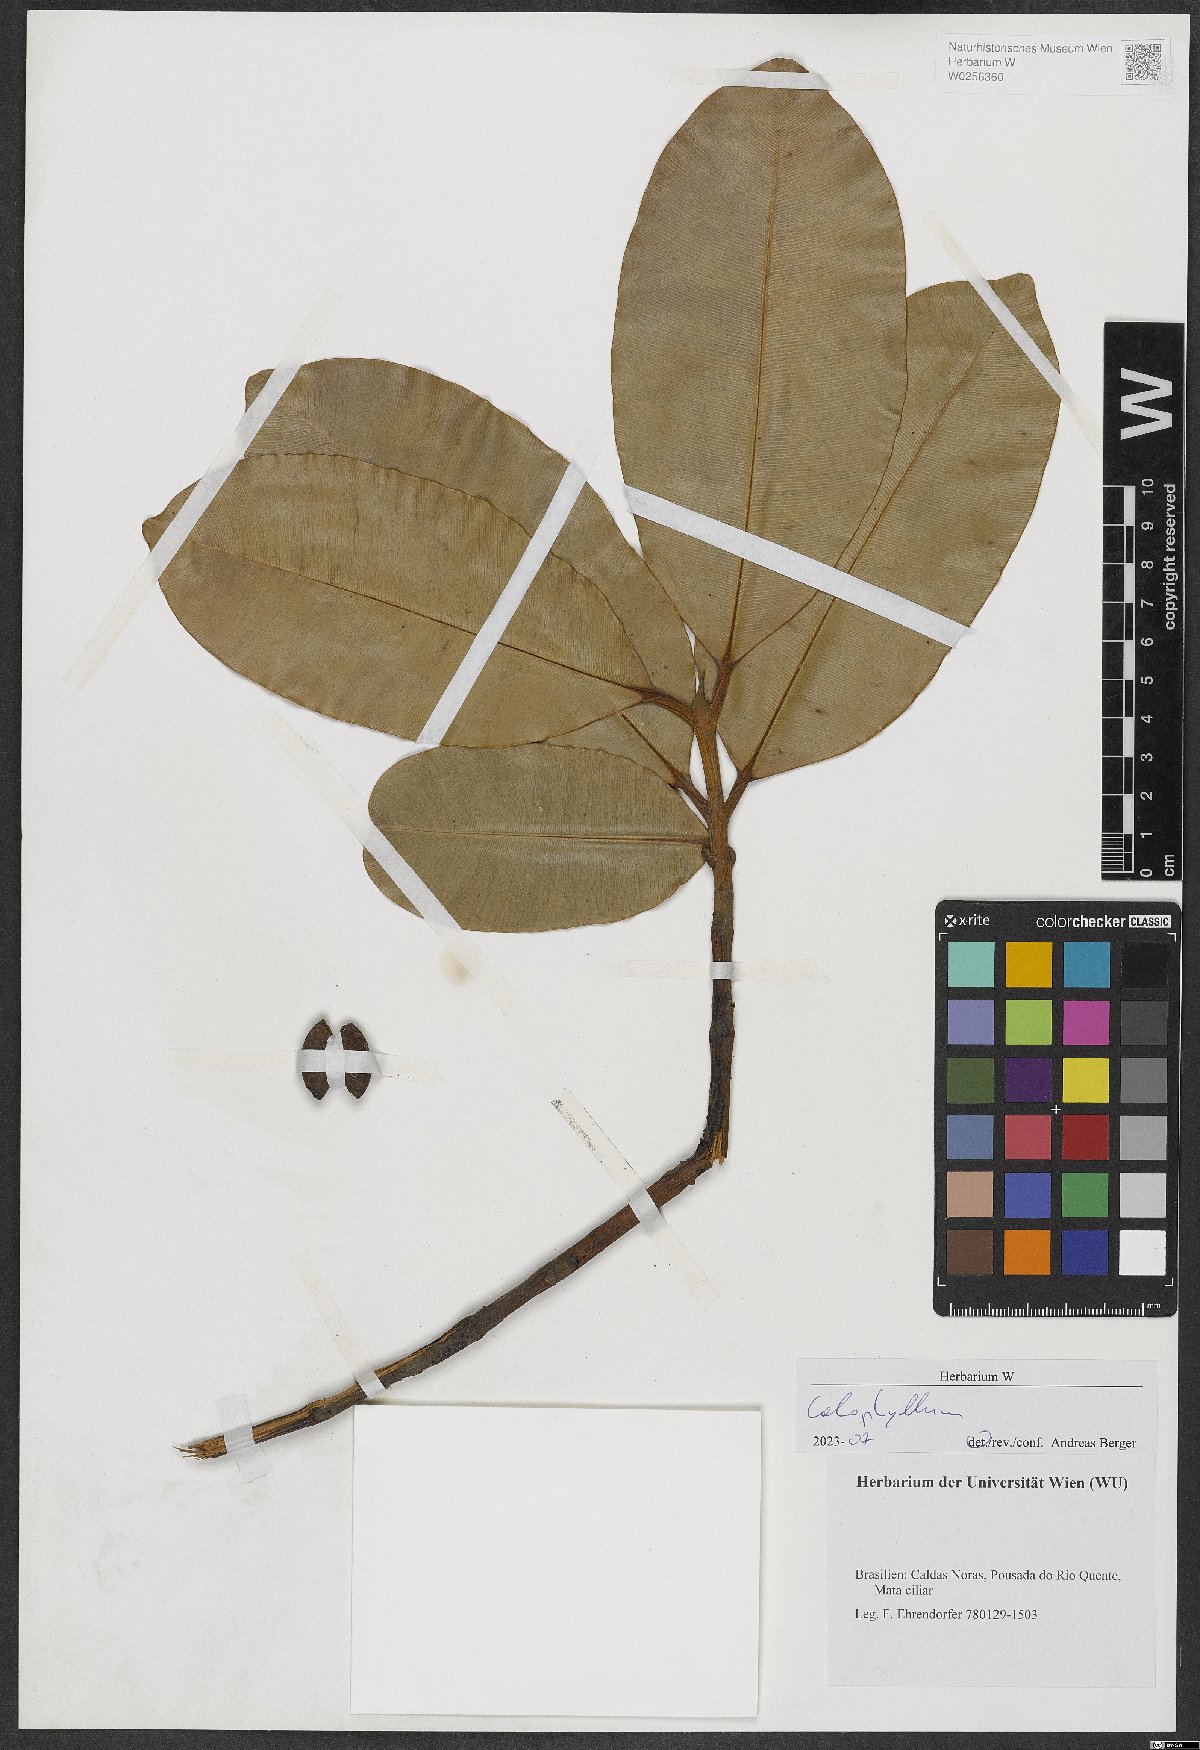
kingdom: Plantae
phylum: Tracheophyta
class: Magnoliopsida
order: Malpighiales
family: Calophyllaceae
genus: Calophyllum
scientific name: Calophyllum
